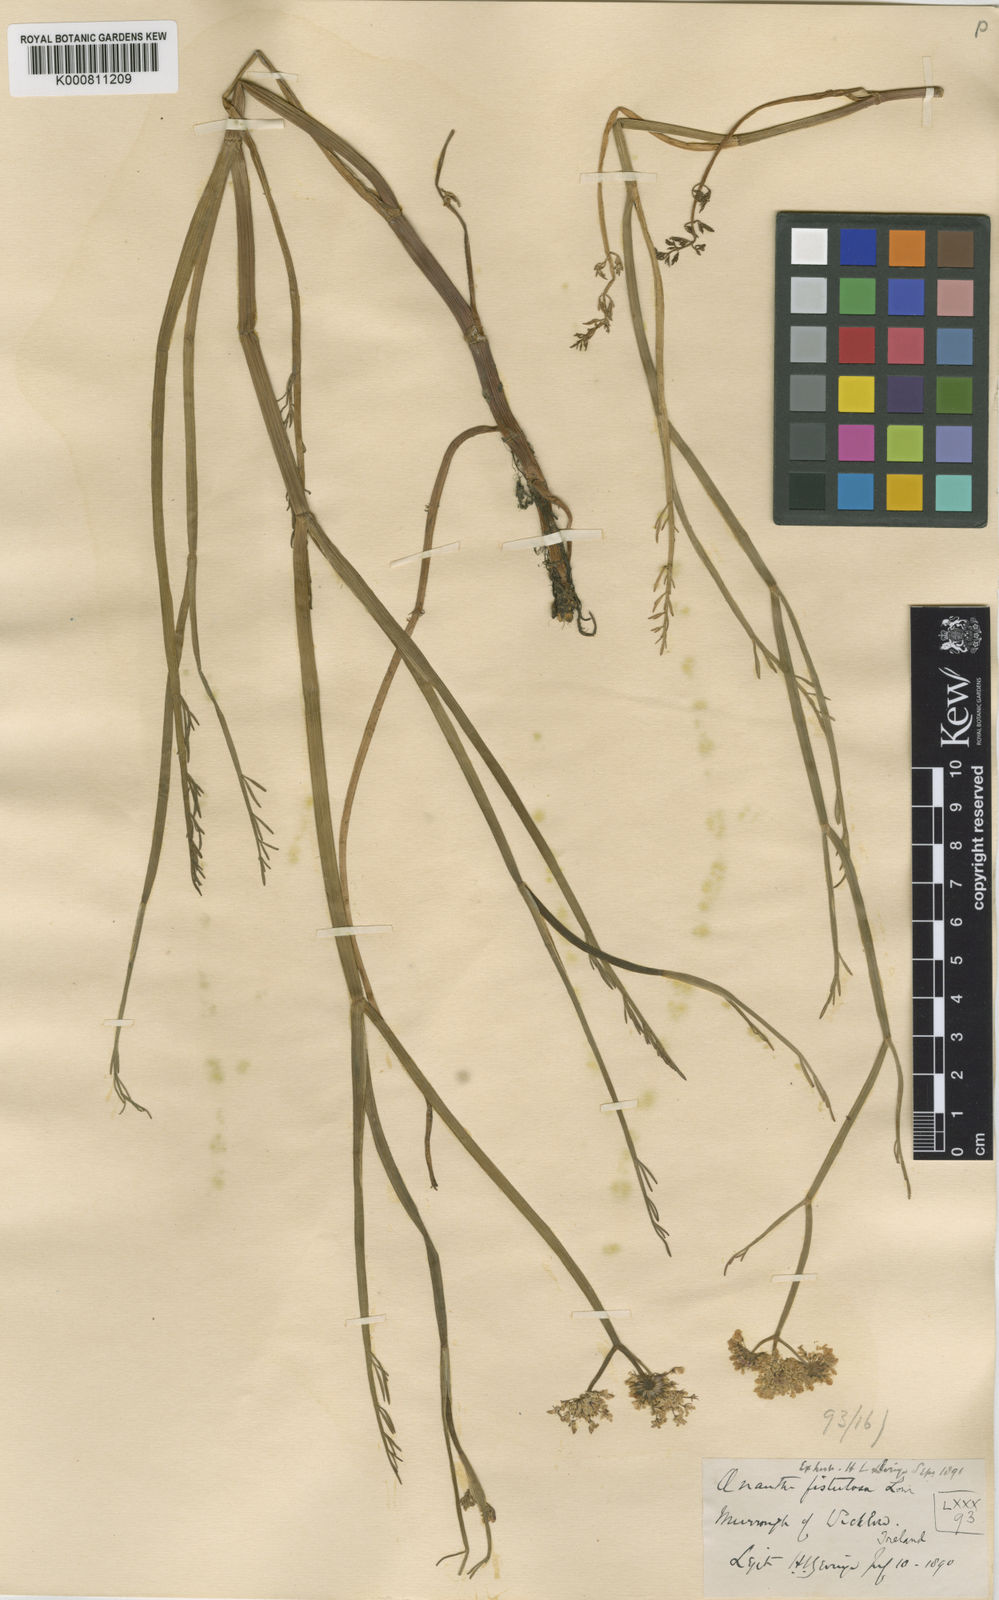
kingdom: Plantae
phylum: Tracheophyta
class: Magnoliopsida
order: Apiales
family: Apiaceae
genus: Oenanthe
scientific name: Oenanthe fistulosa
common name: Tubular water-dropwort
